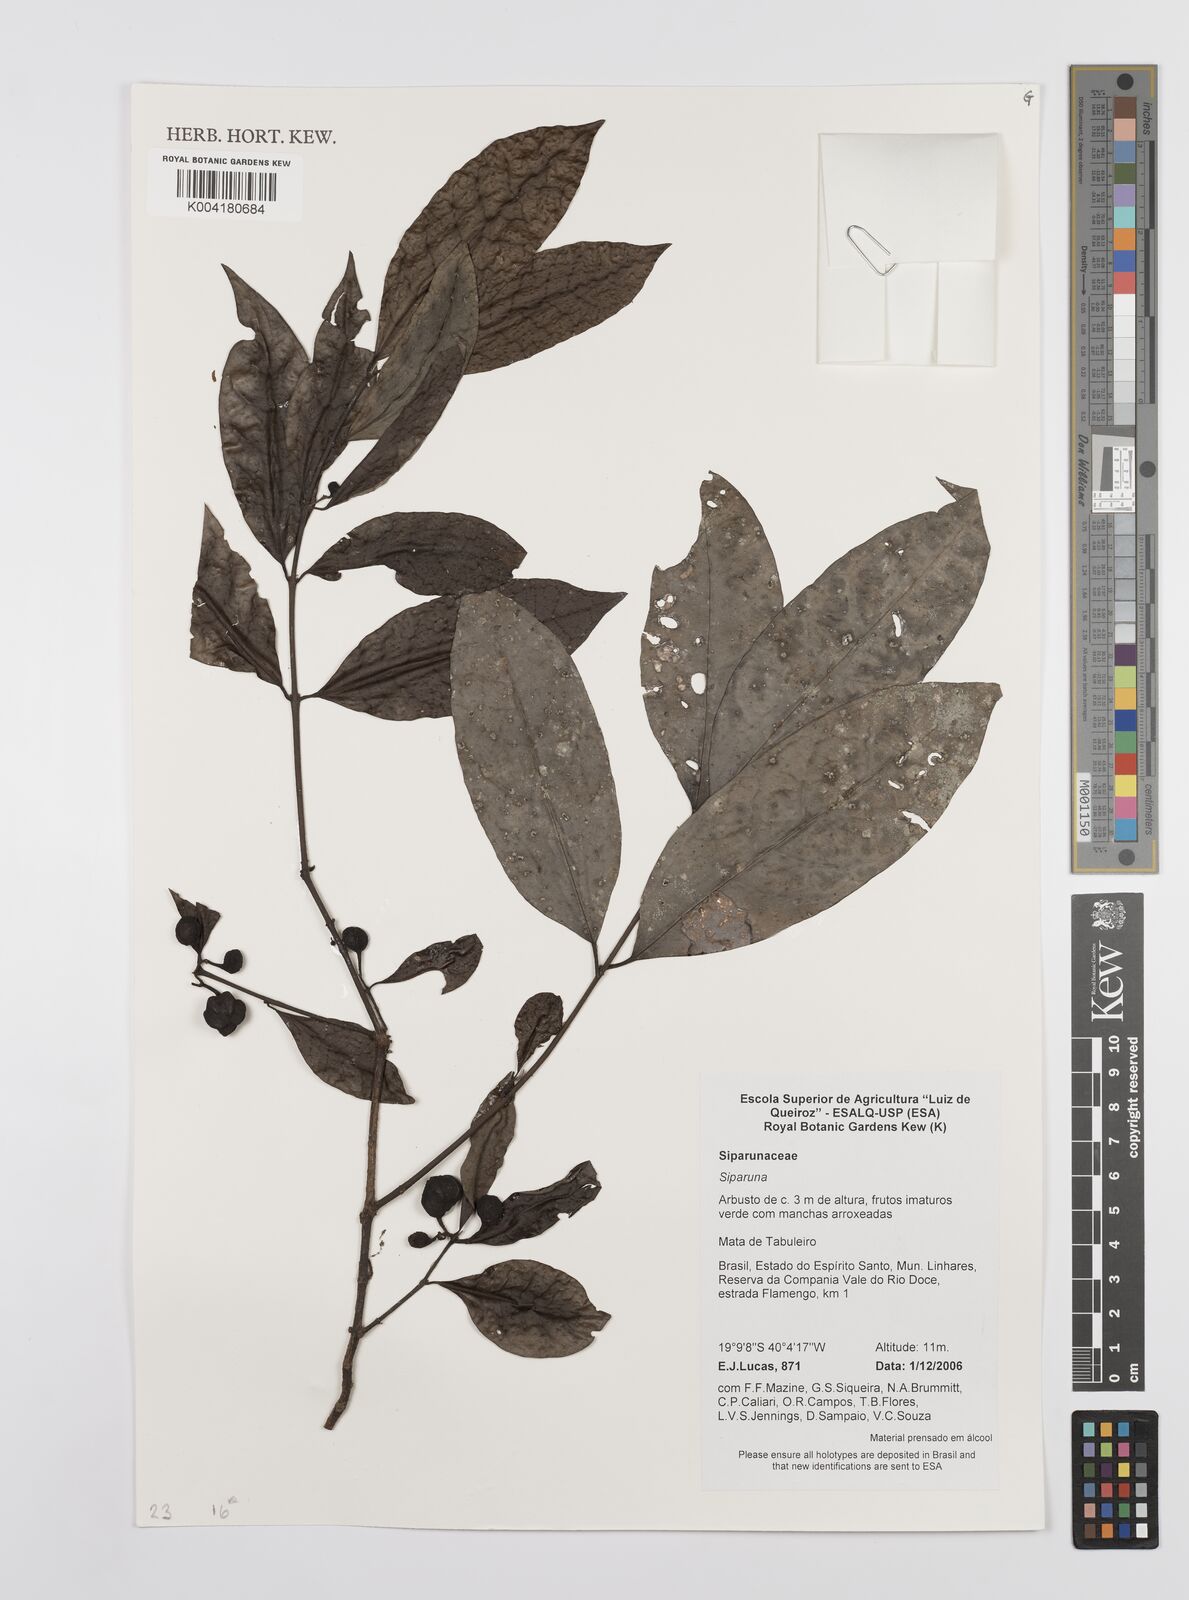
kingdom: Plantae
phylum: Tracheophyta
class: Magnoliopsida
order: Laurales
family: Siparunaceae
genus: Siparuna
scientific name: Siparuna guianensis
